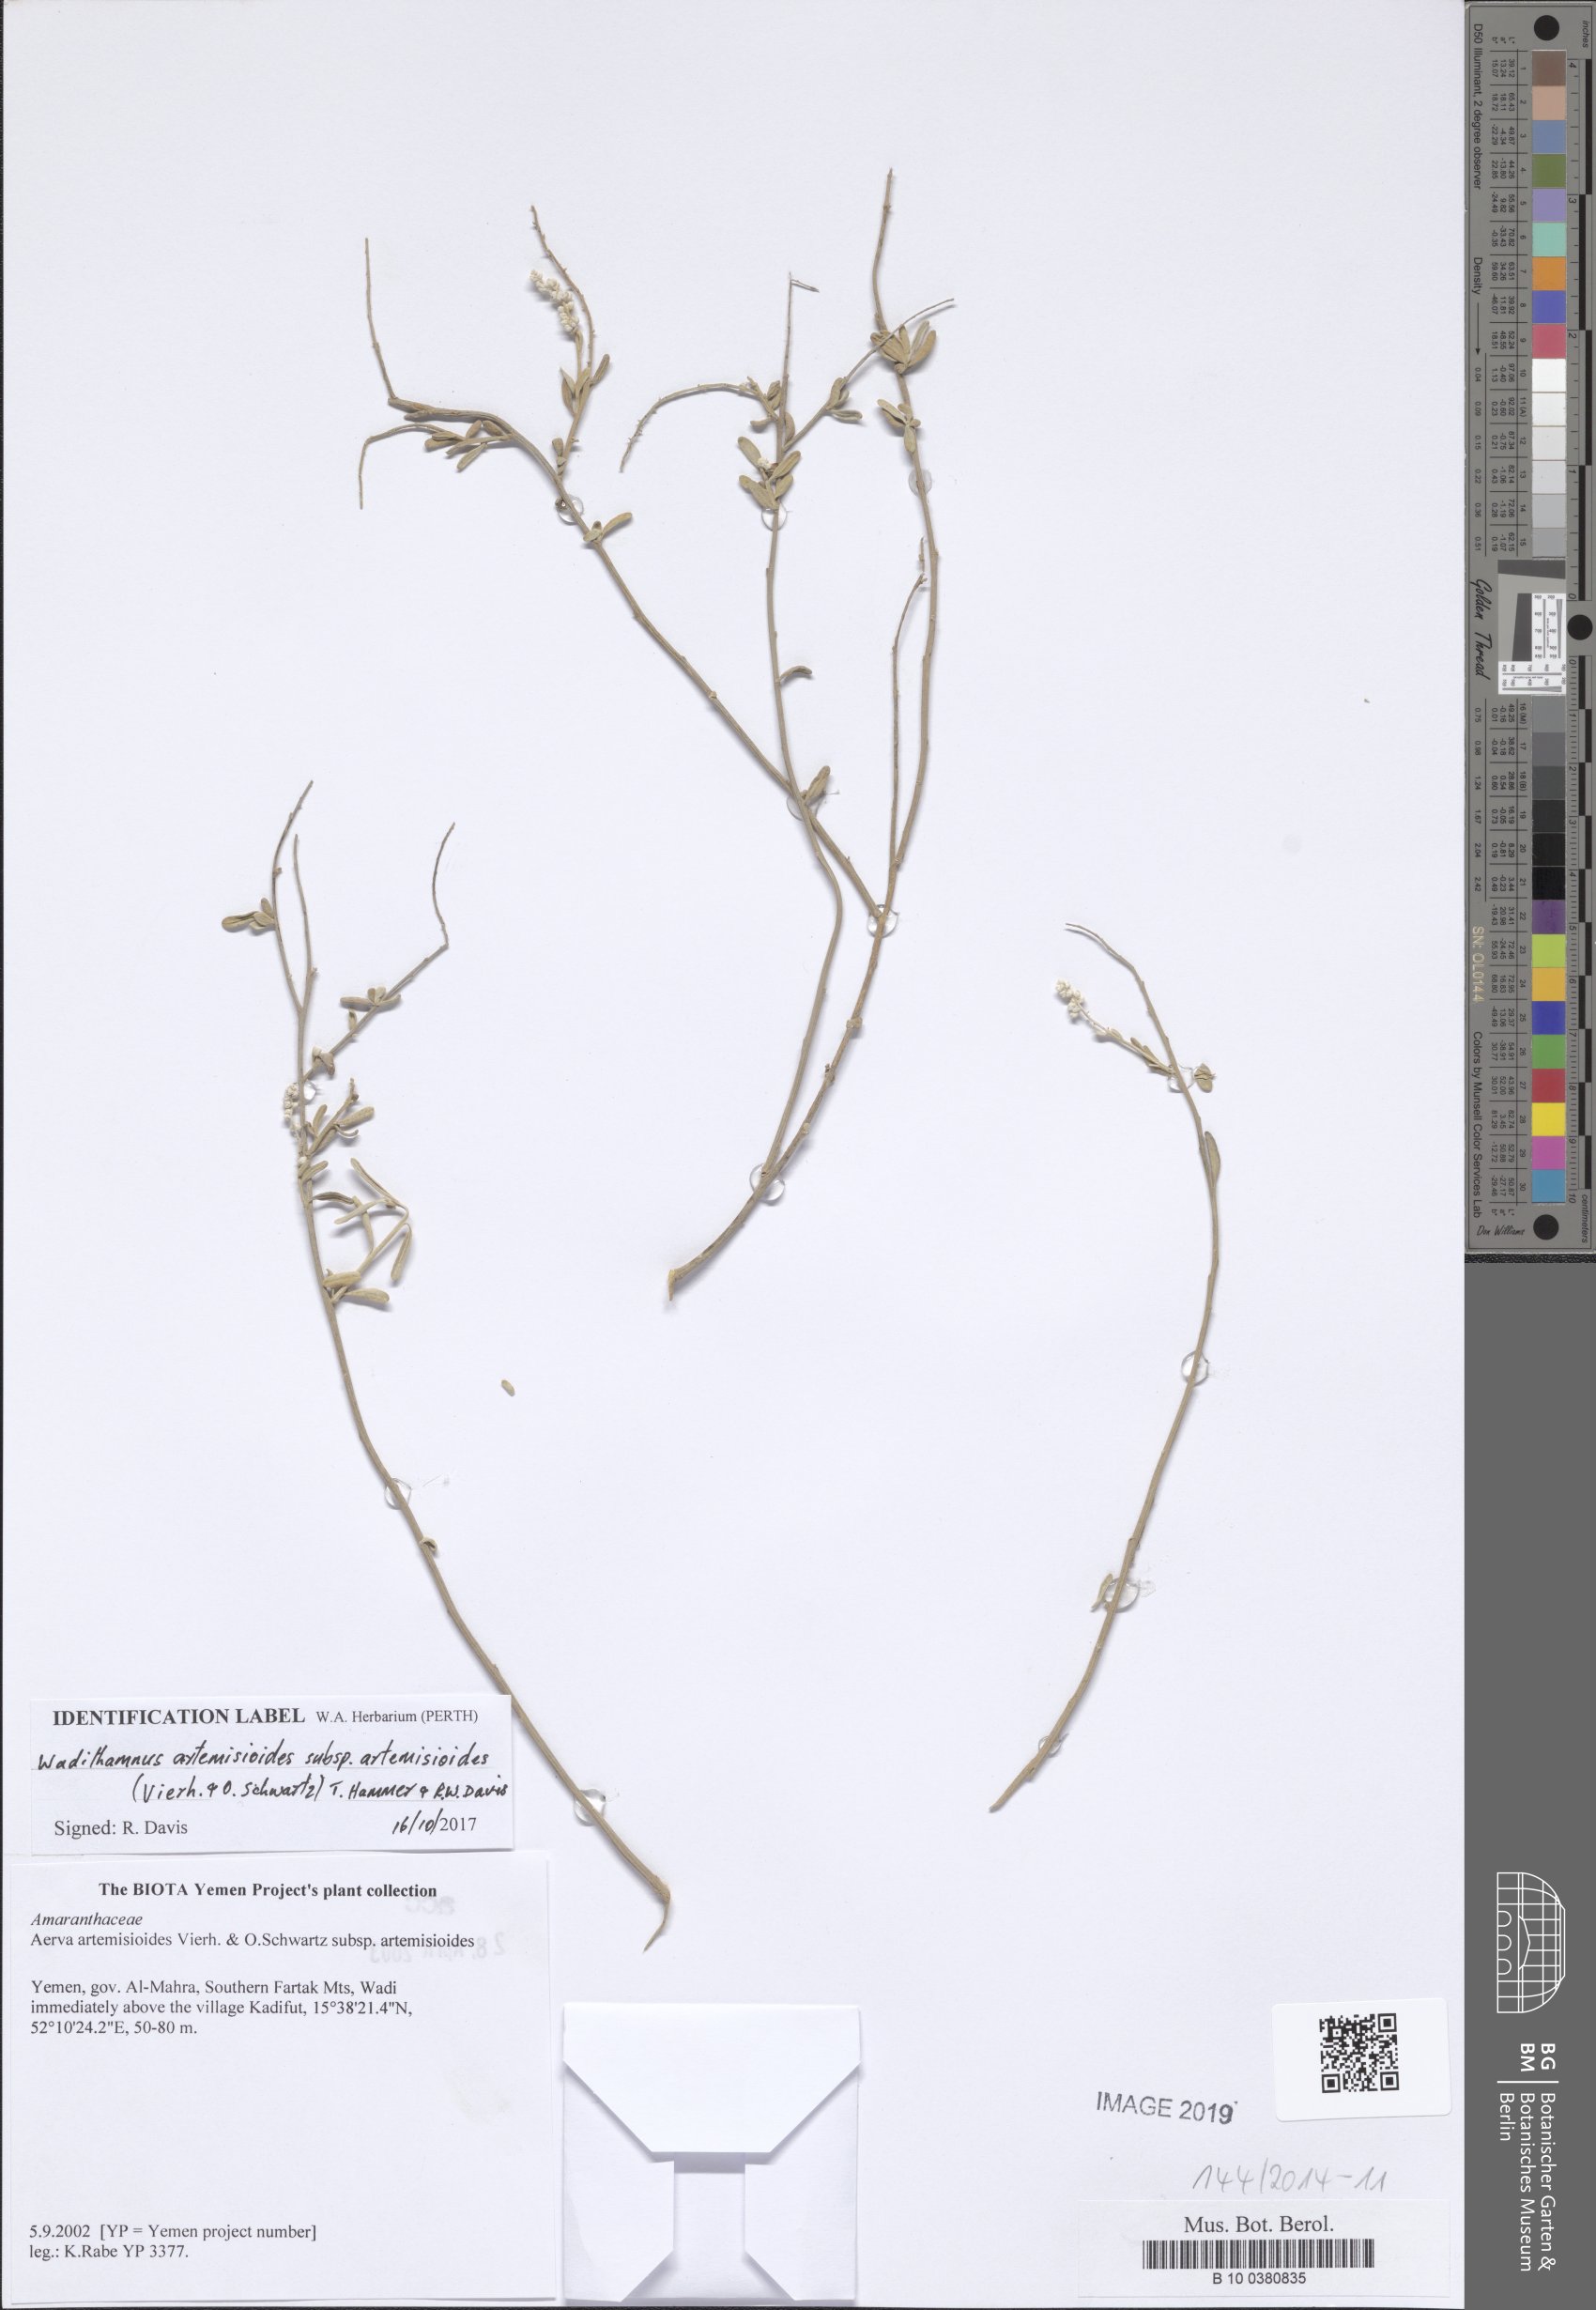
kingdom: Plantae
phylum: Tracheophyta
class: Magnoliopsida
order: Caryophyllales
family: Amaranthaceae
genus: Wadithamnus
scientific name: Wadithamnus artemisioides
